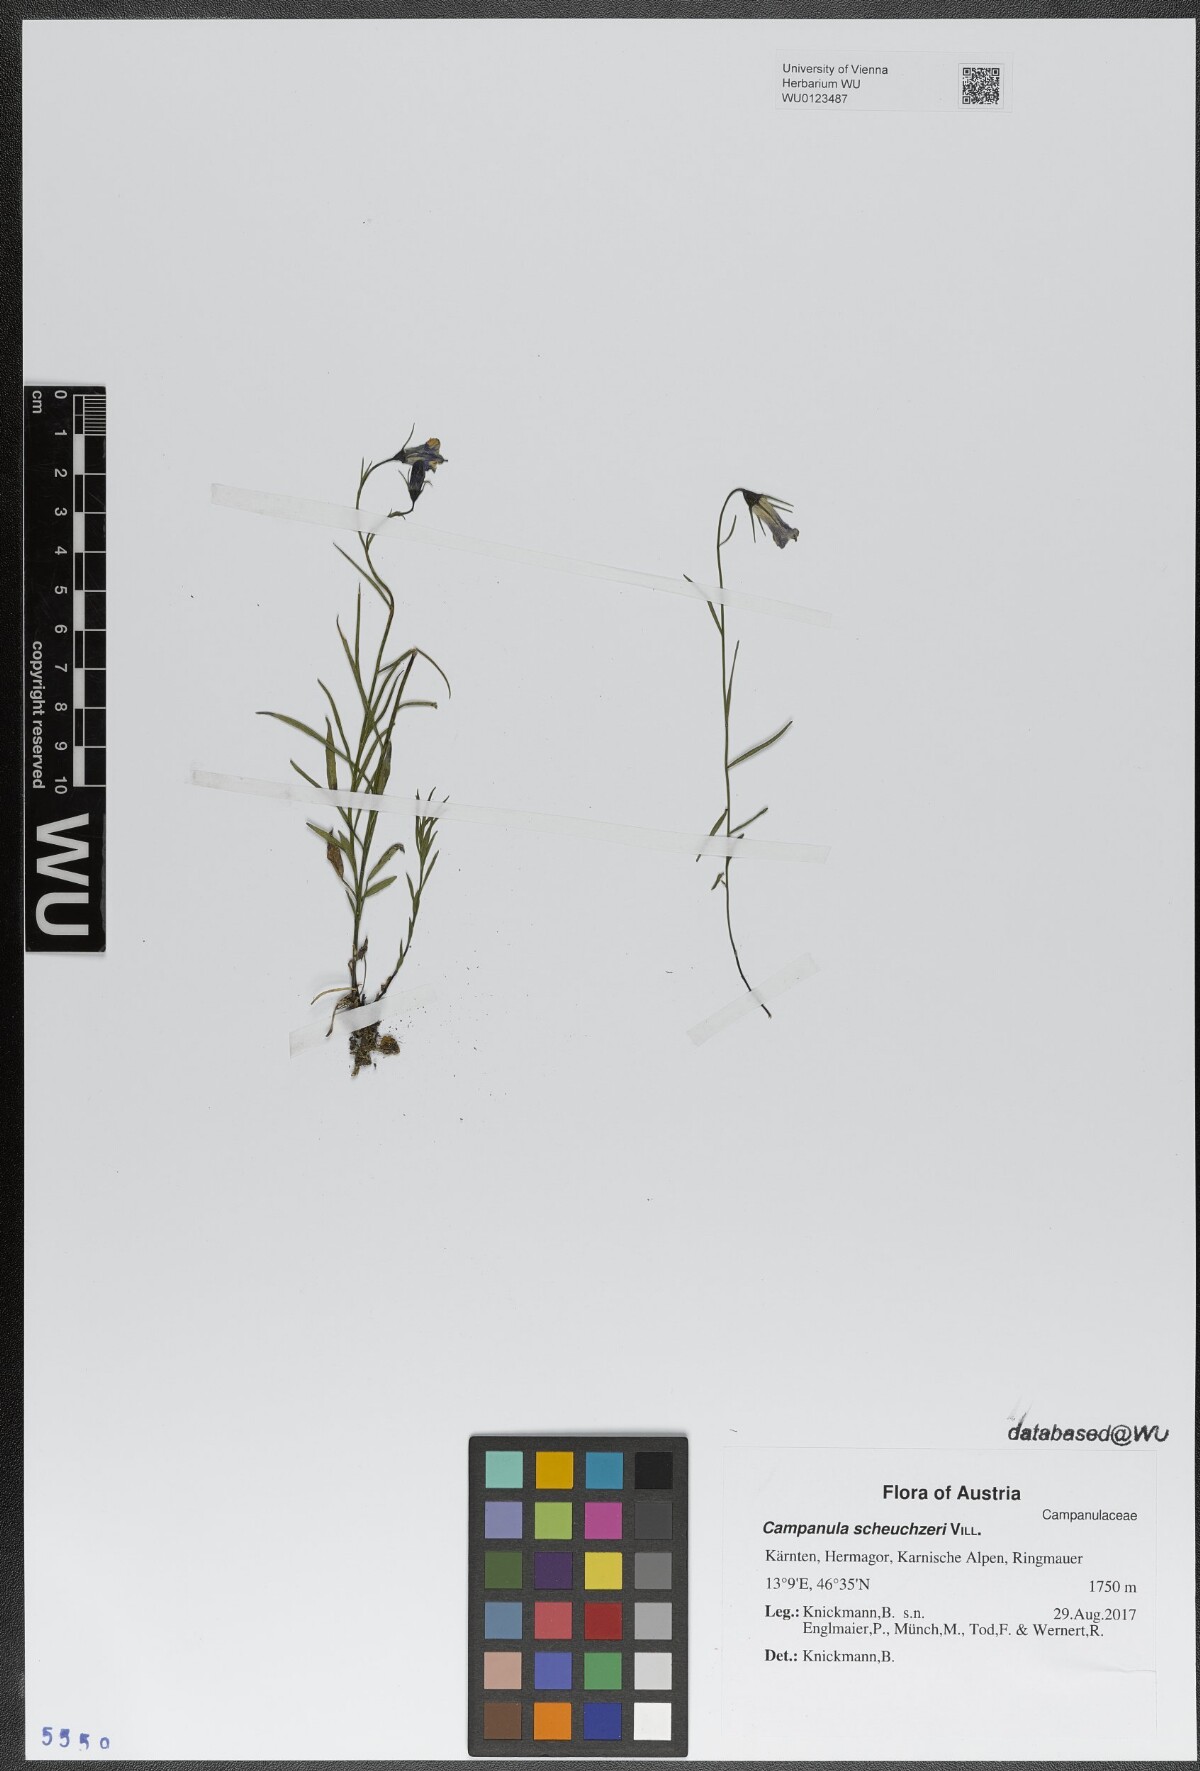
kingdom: Plantae
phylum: Tracheophyta
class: Magnoliopsida
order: Asterales
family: Campanulaceae
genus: Campanula
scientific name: Campanula scheuchzeri
